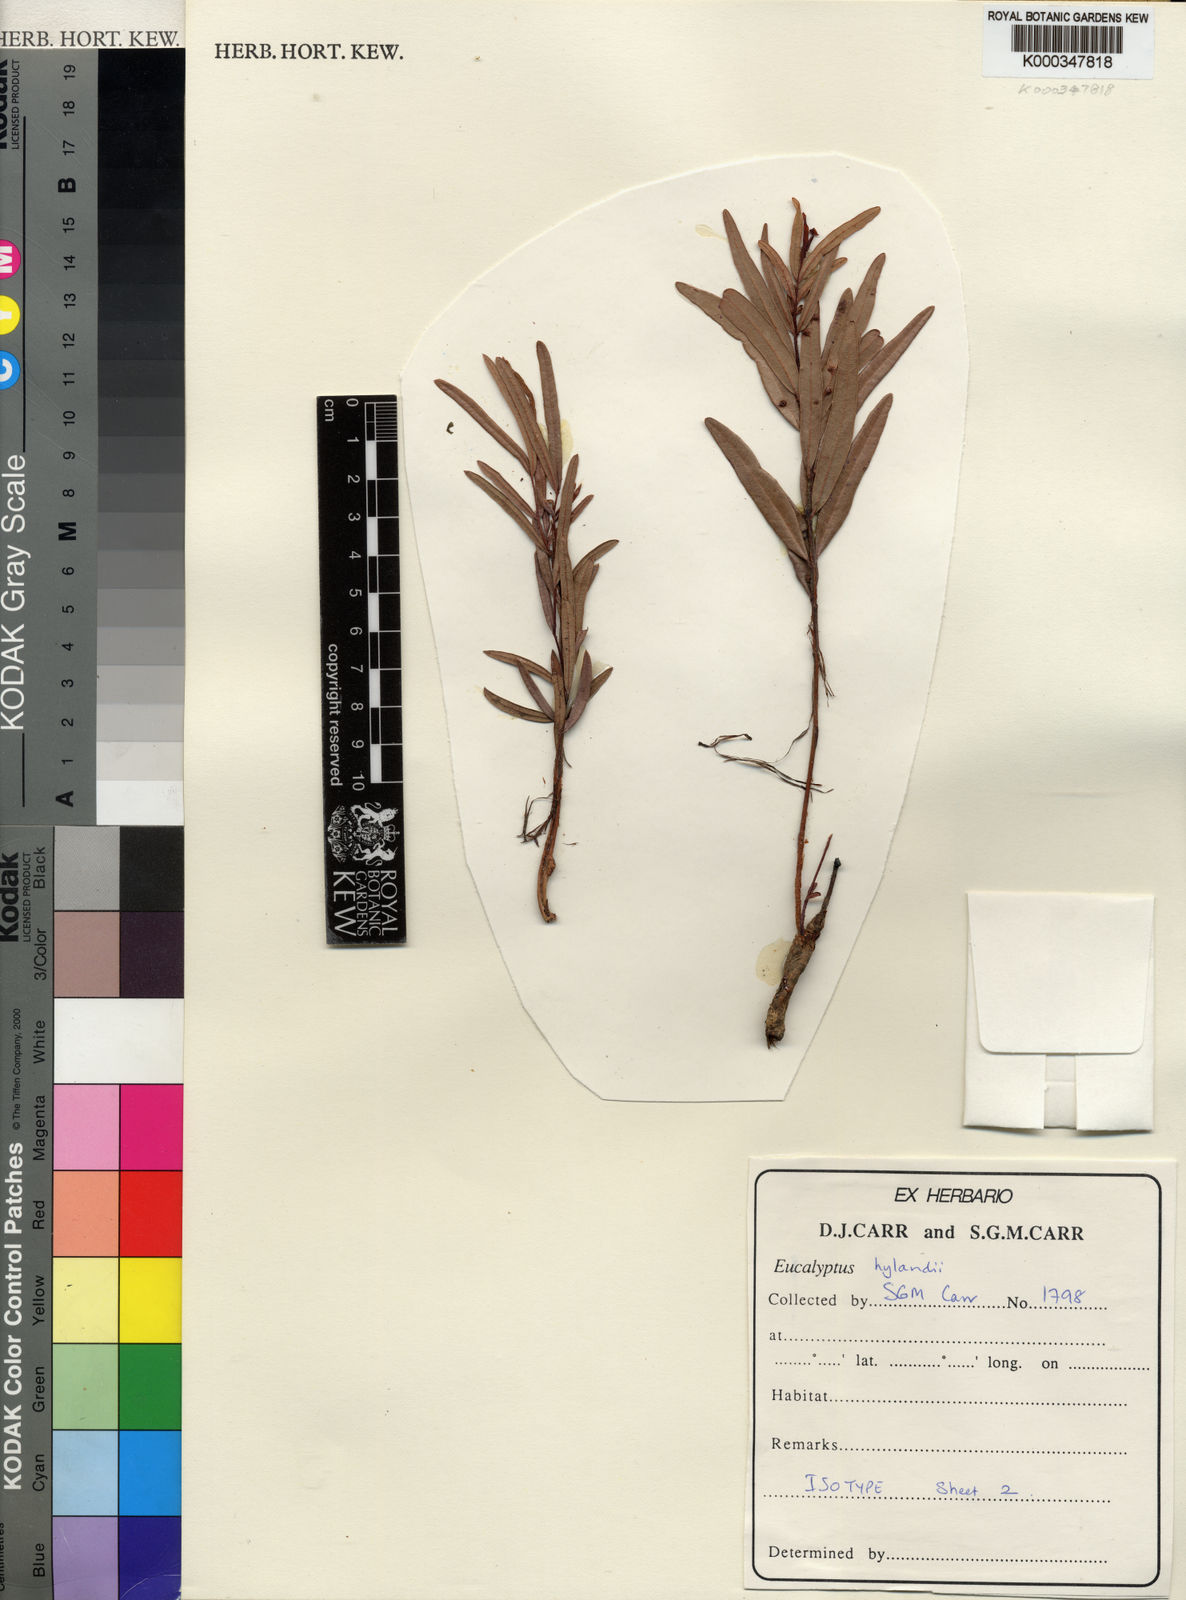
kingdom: Plantae
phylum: Tracheophyta
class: Magnoliopsida
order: Myrtales
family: Myrtaceae
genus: Corymbia
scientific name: Corymbia hylandii
